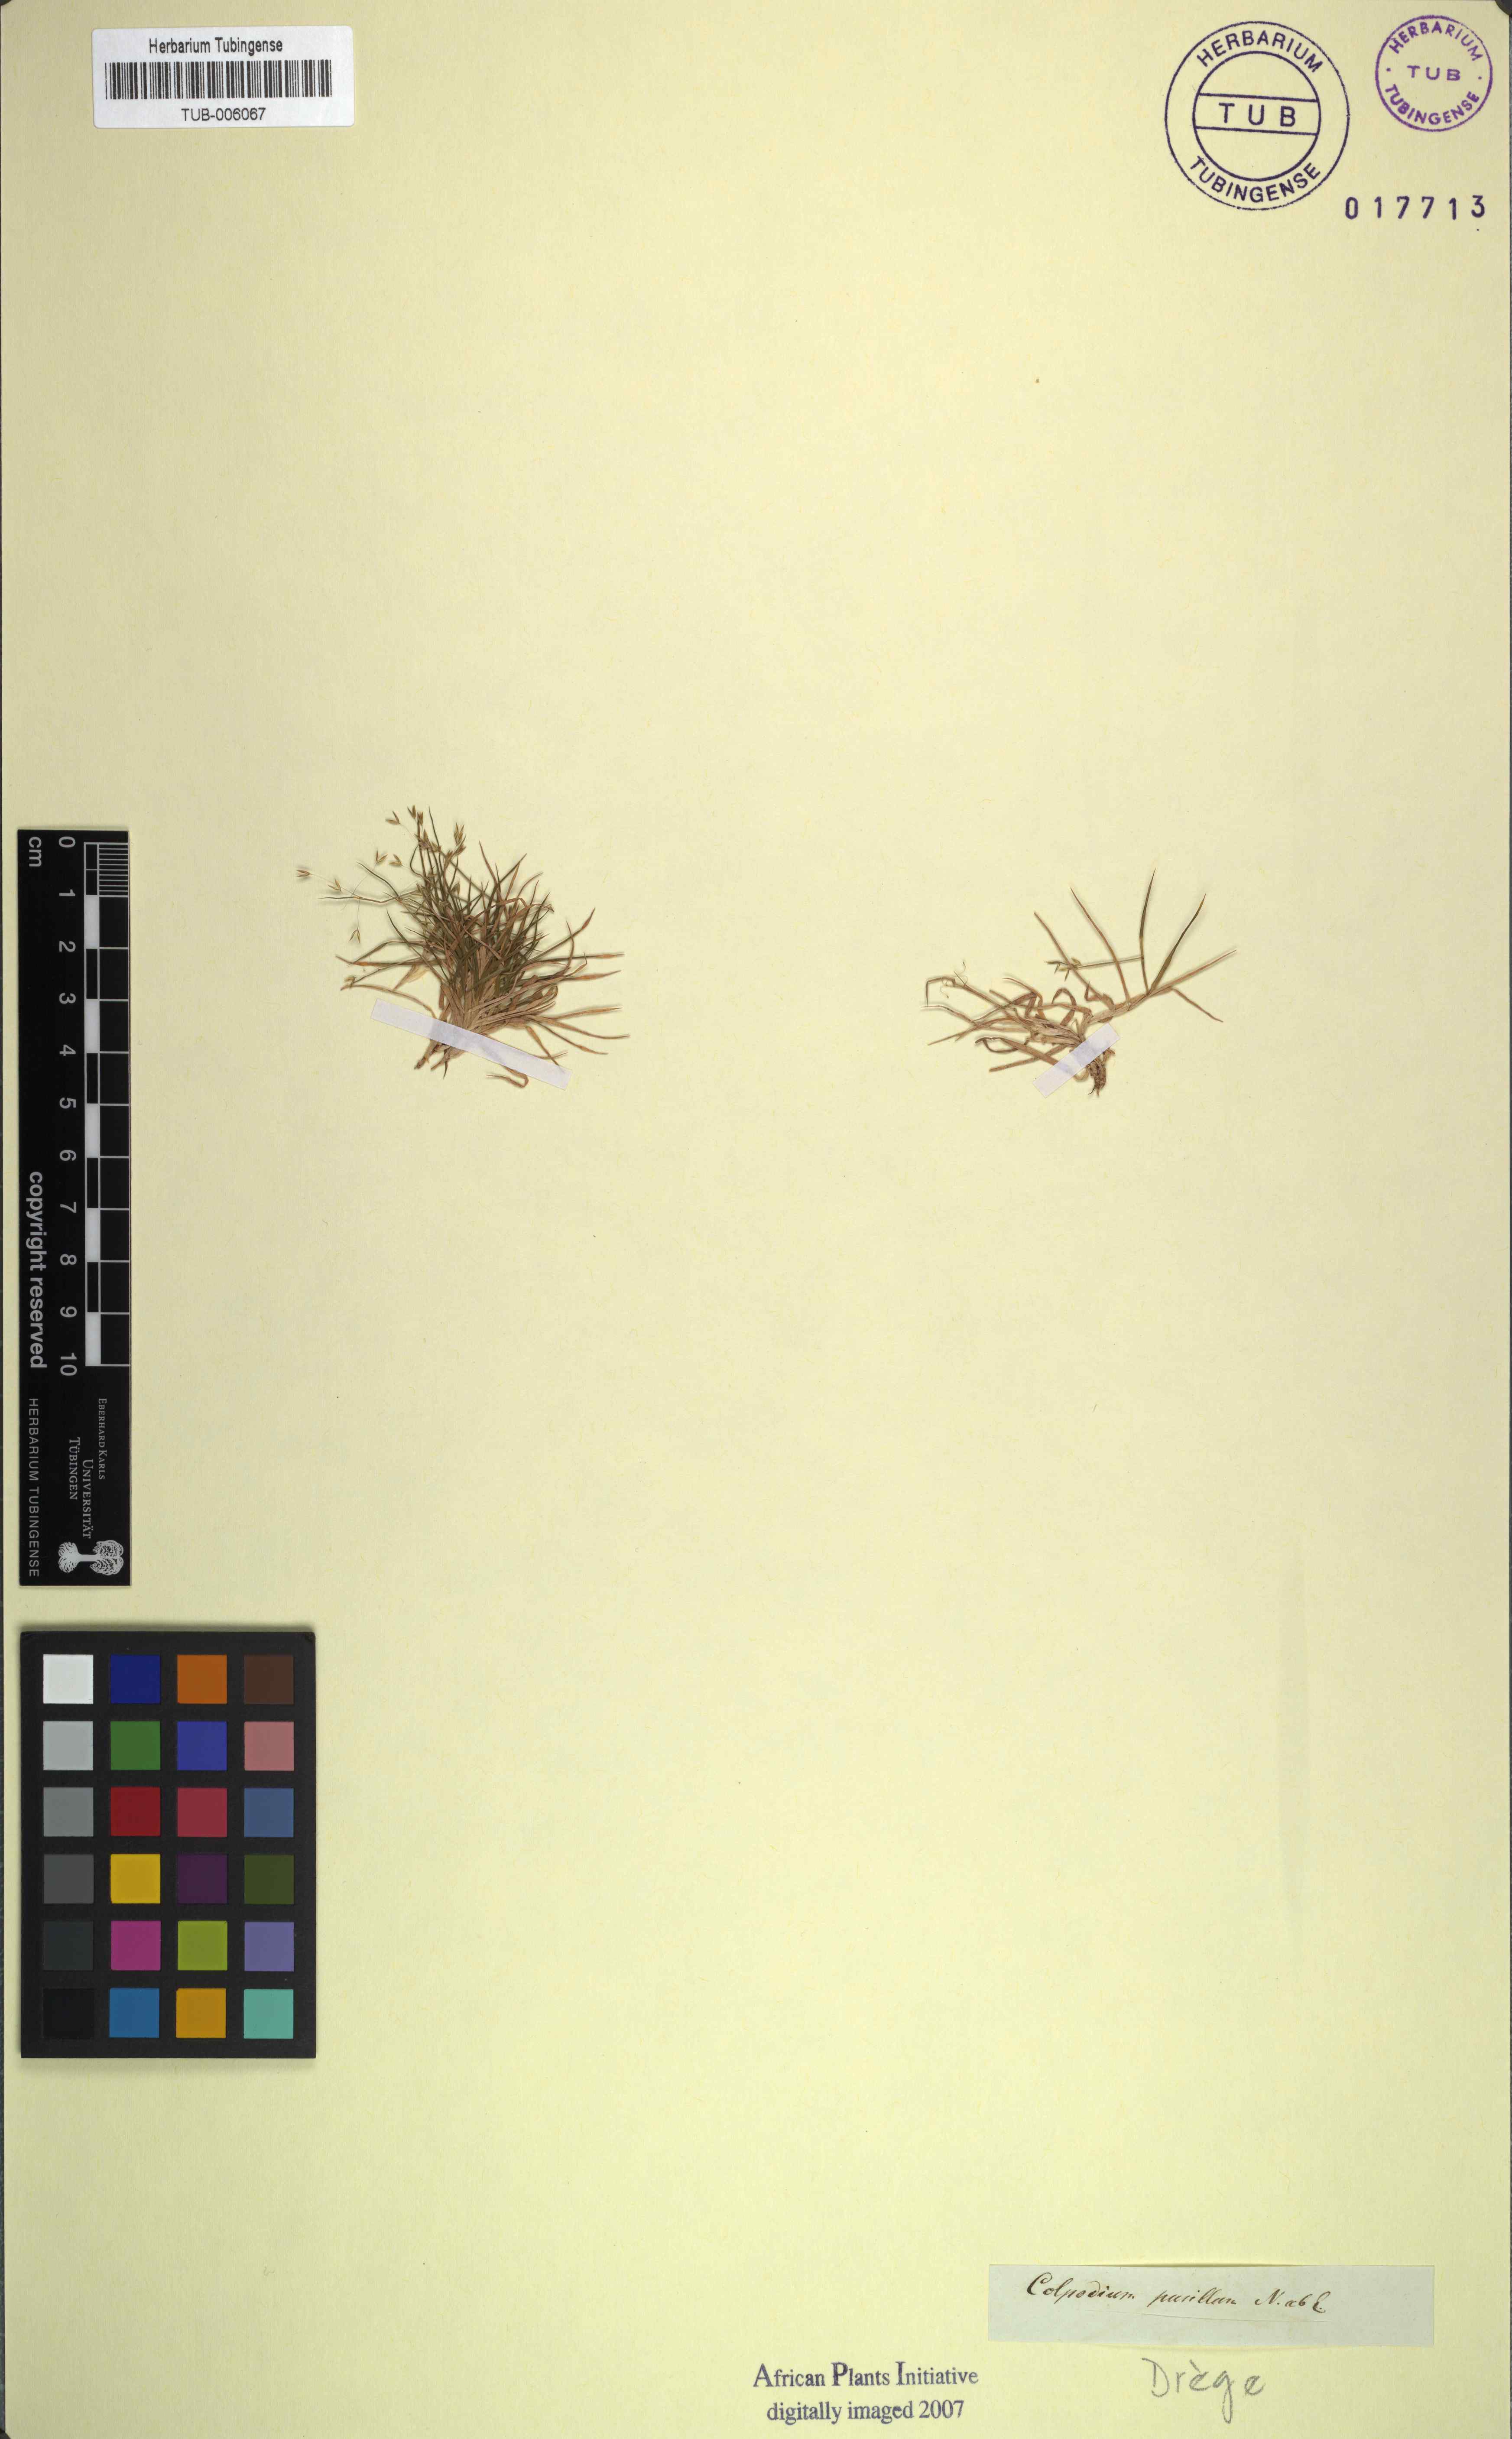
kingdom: Plantae
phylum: Tracheophyta
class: Liliopsida
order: Poales
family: Poaceae
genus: Pentameris
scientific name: Pentameris pusilla
